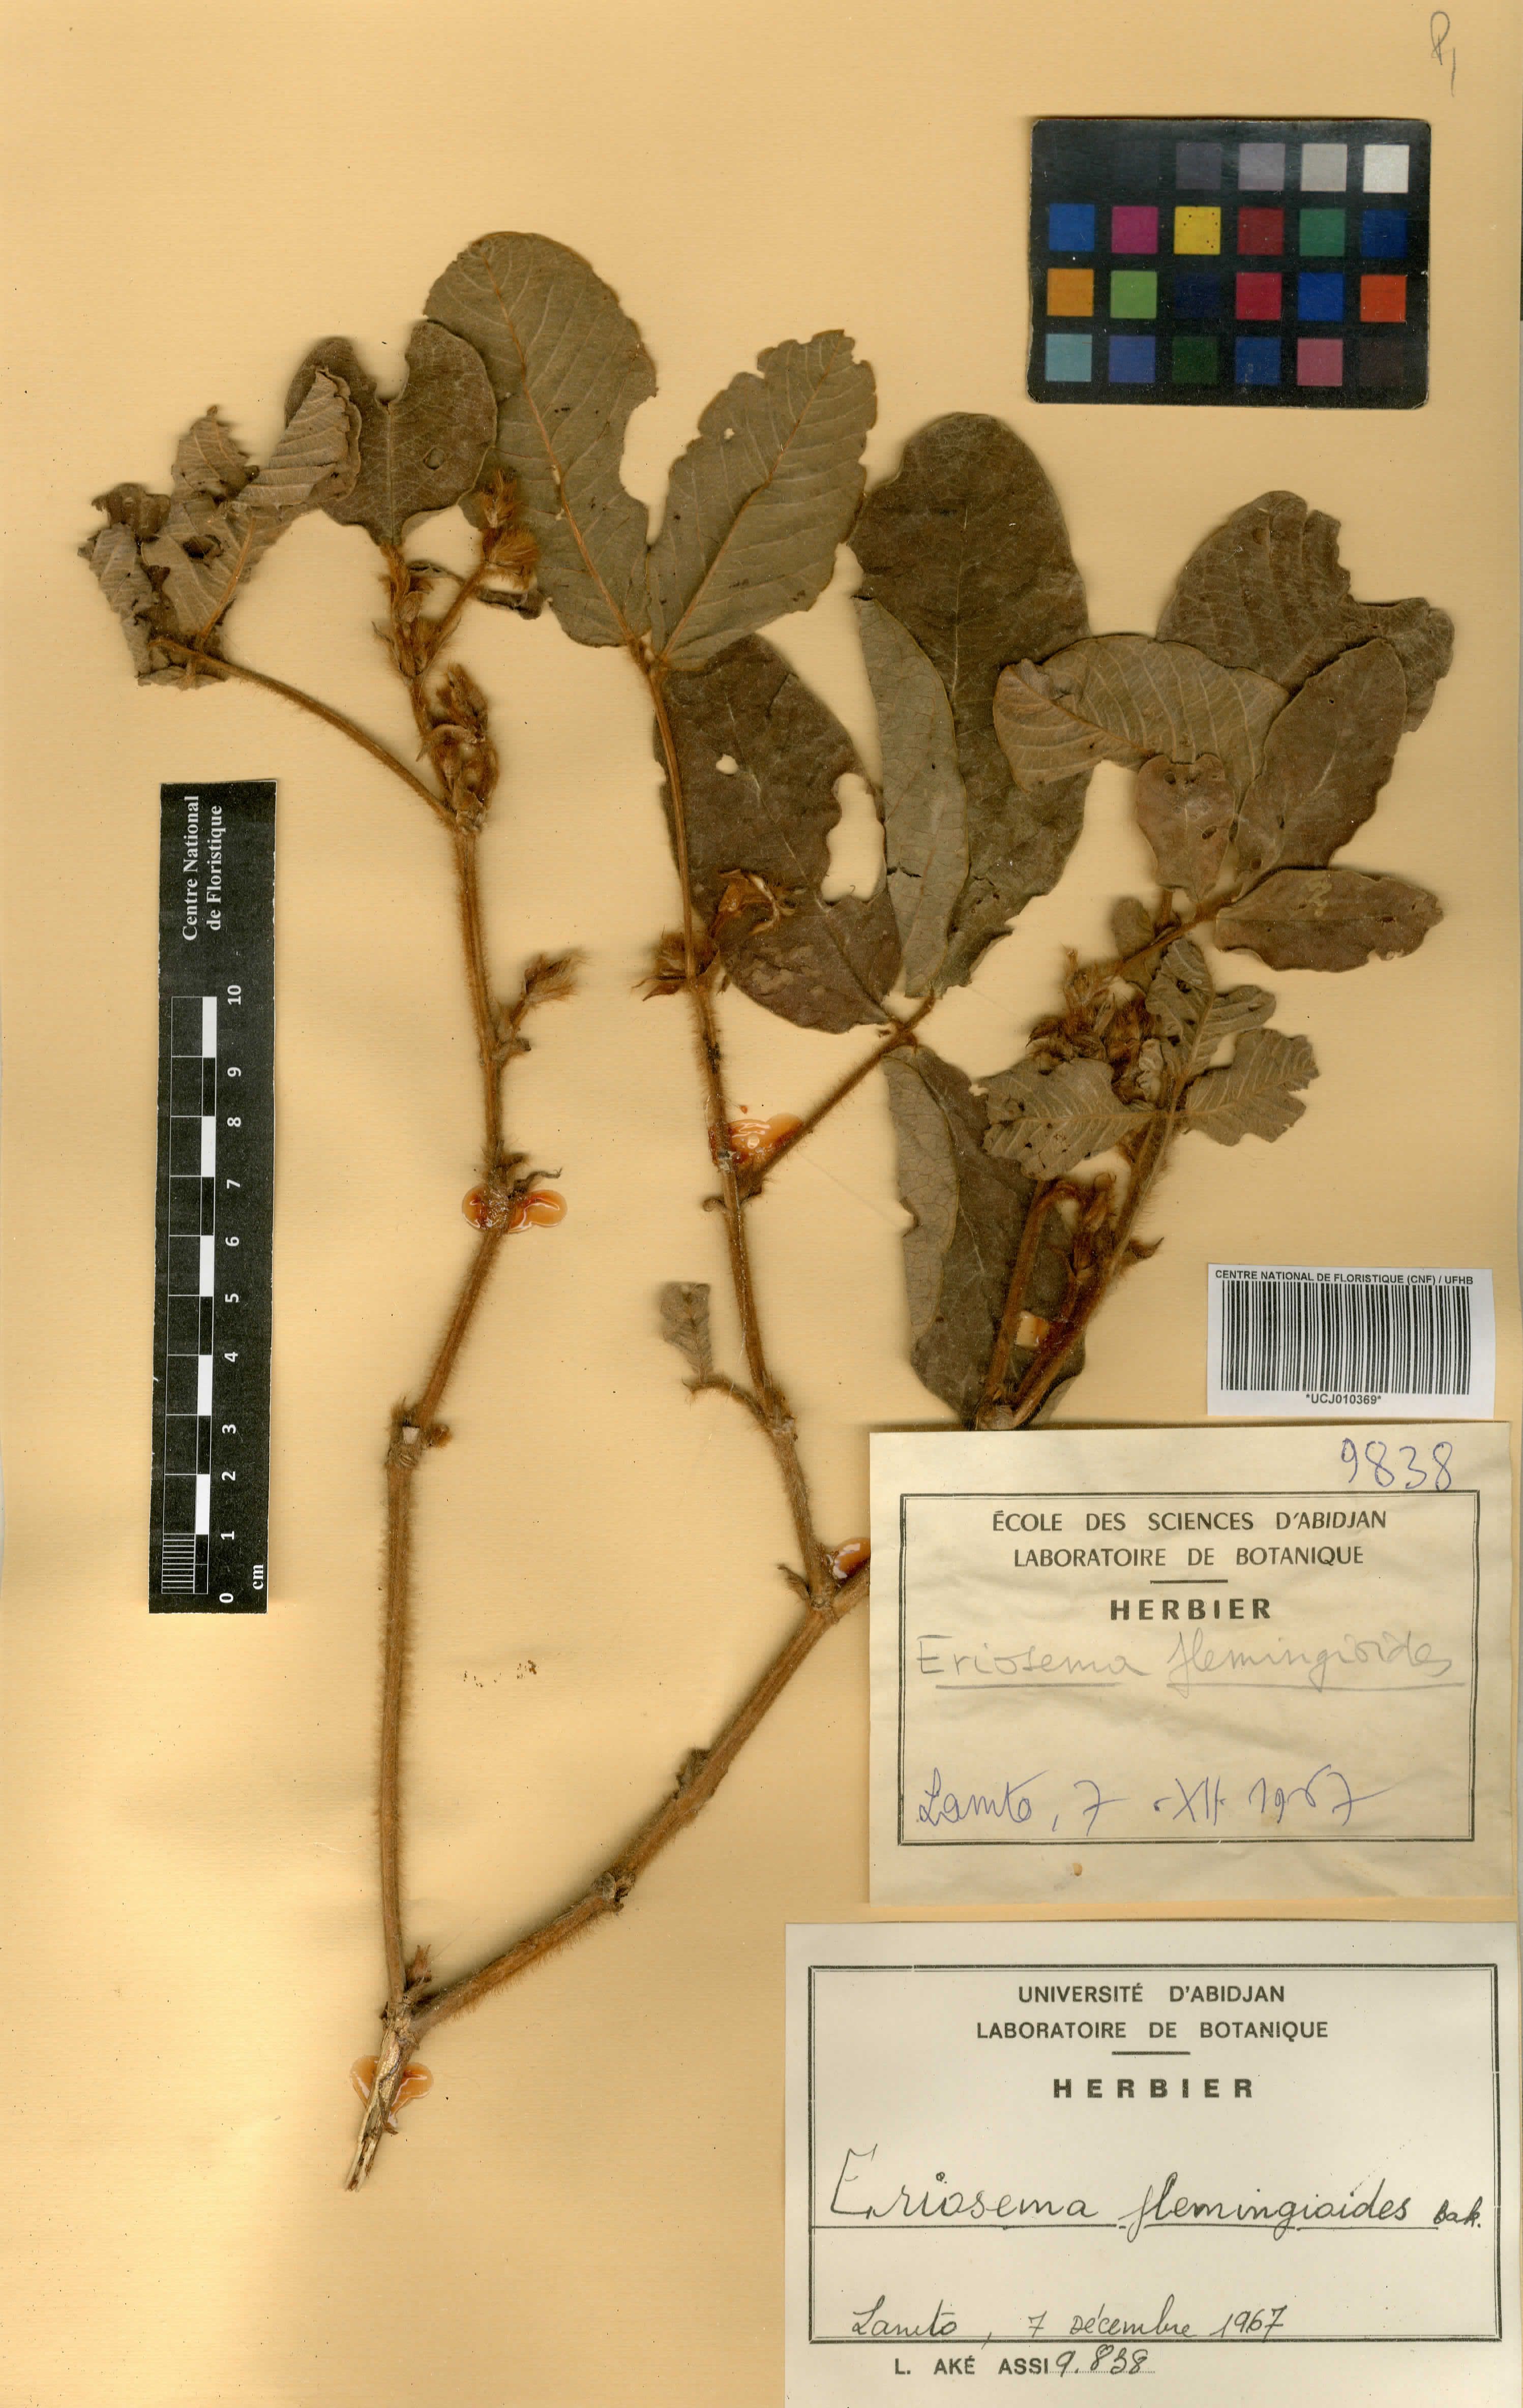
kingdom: Plantae
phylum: Tracheophyta
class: Magnoliopsida
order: Fabales
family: Fabaceae
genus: Eriosema
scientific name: Eriosema flemingioides
